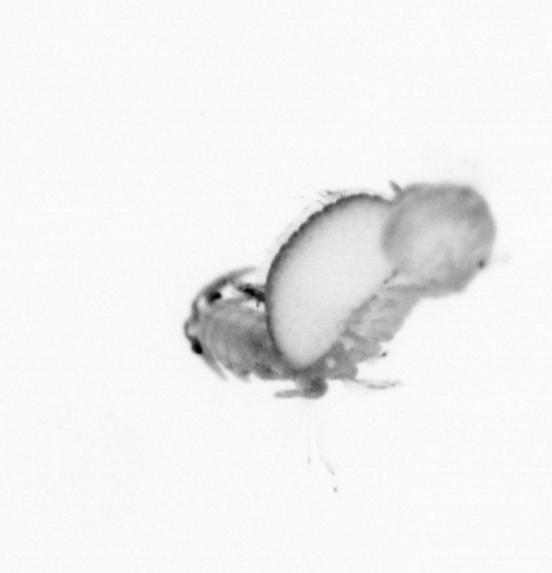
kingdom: Animalia
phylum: Annelida
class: Polychaeta
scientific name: Polychaeta
